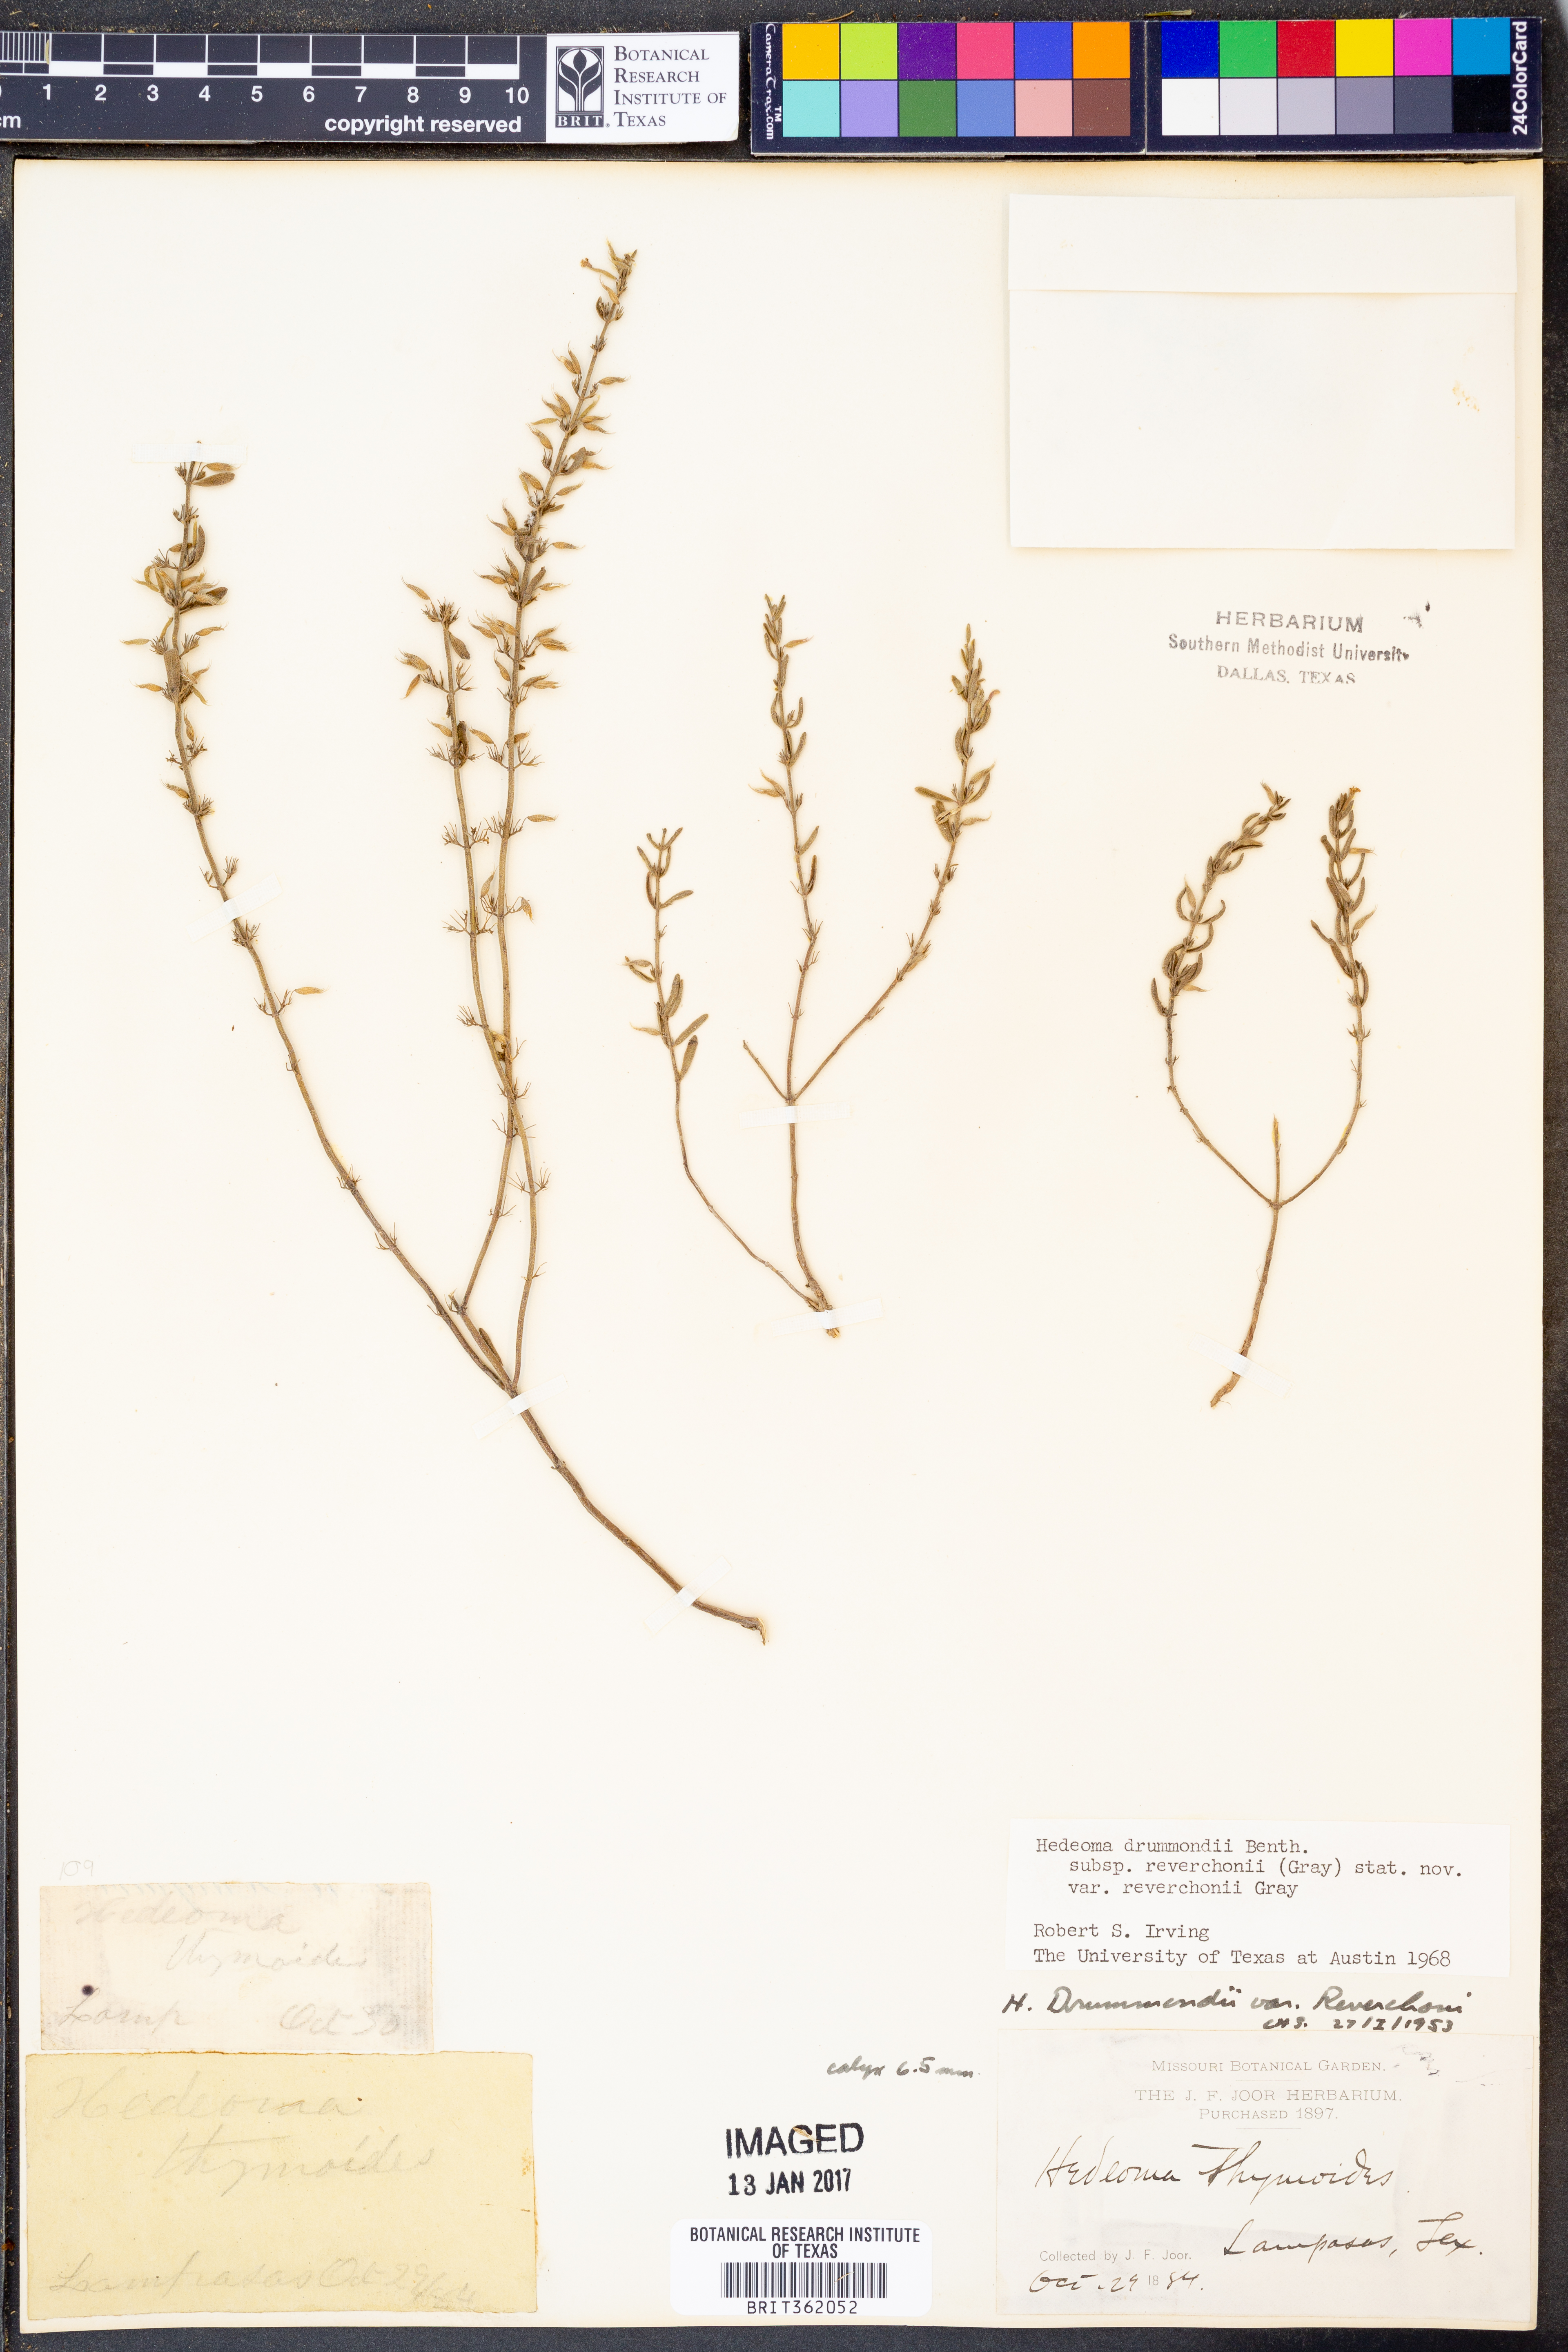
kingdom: Plantae
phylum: Tracheophyta
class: Magnoliopsida
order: Lamiales
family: Lamiaceae
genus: Hedeoma
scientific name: Hedeoma reverchonii
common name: Reverchon's false penny-royal
